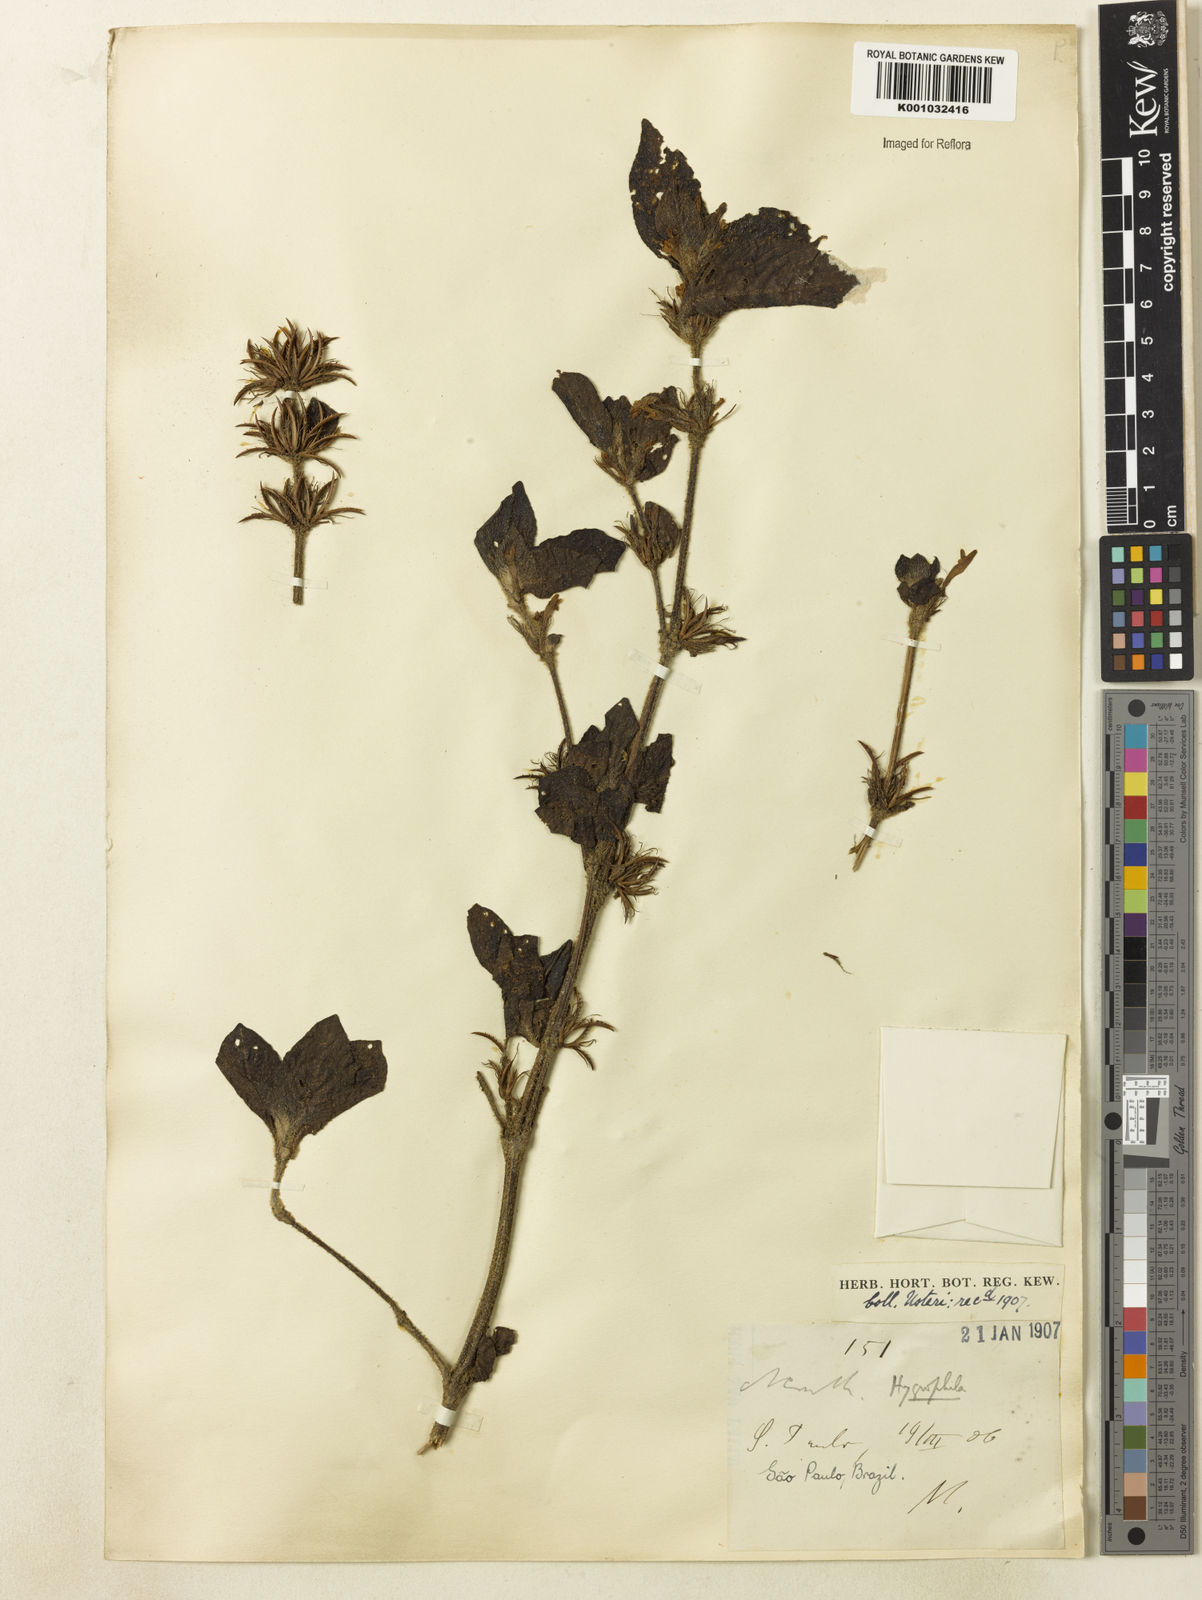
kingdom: Plantae
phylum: Tracheophyta
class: Magnoliopsida
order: Lamiales
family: Acanthaceae
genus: Hygrophila
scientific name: Hygrophila costata
